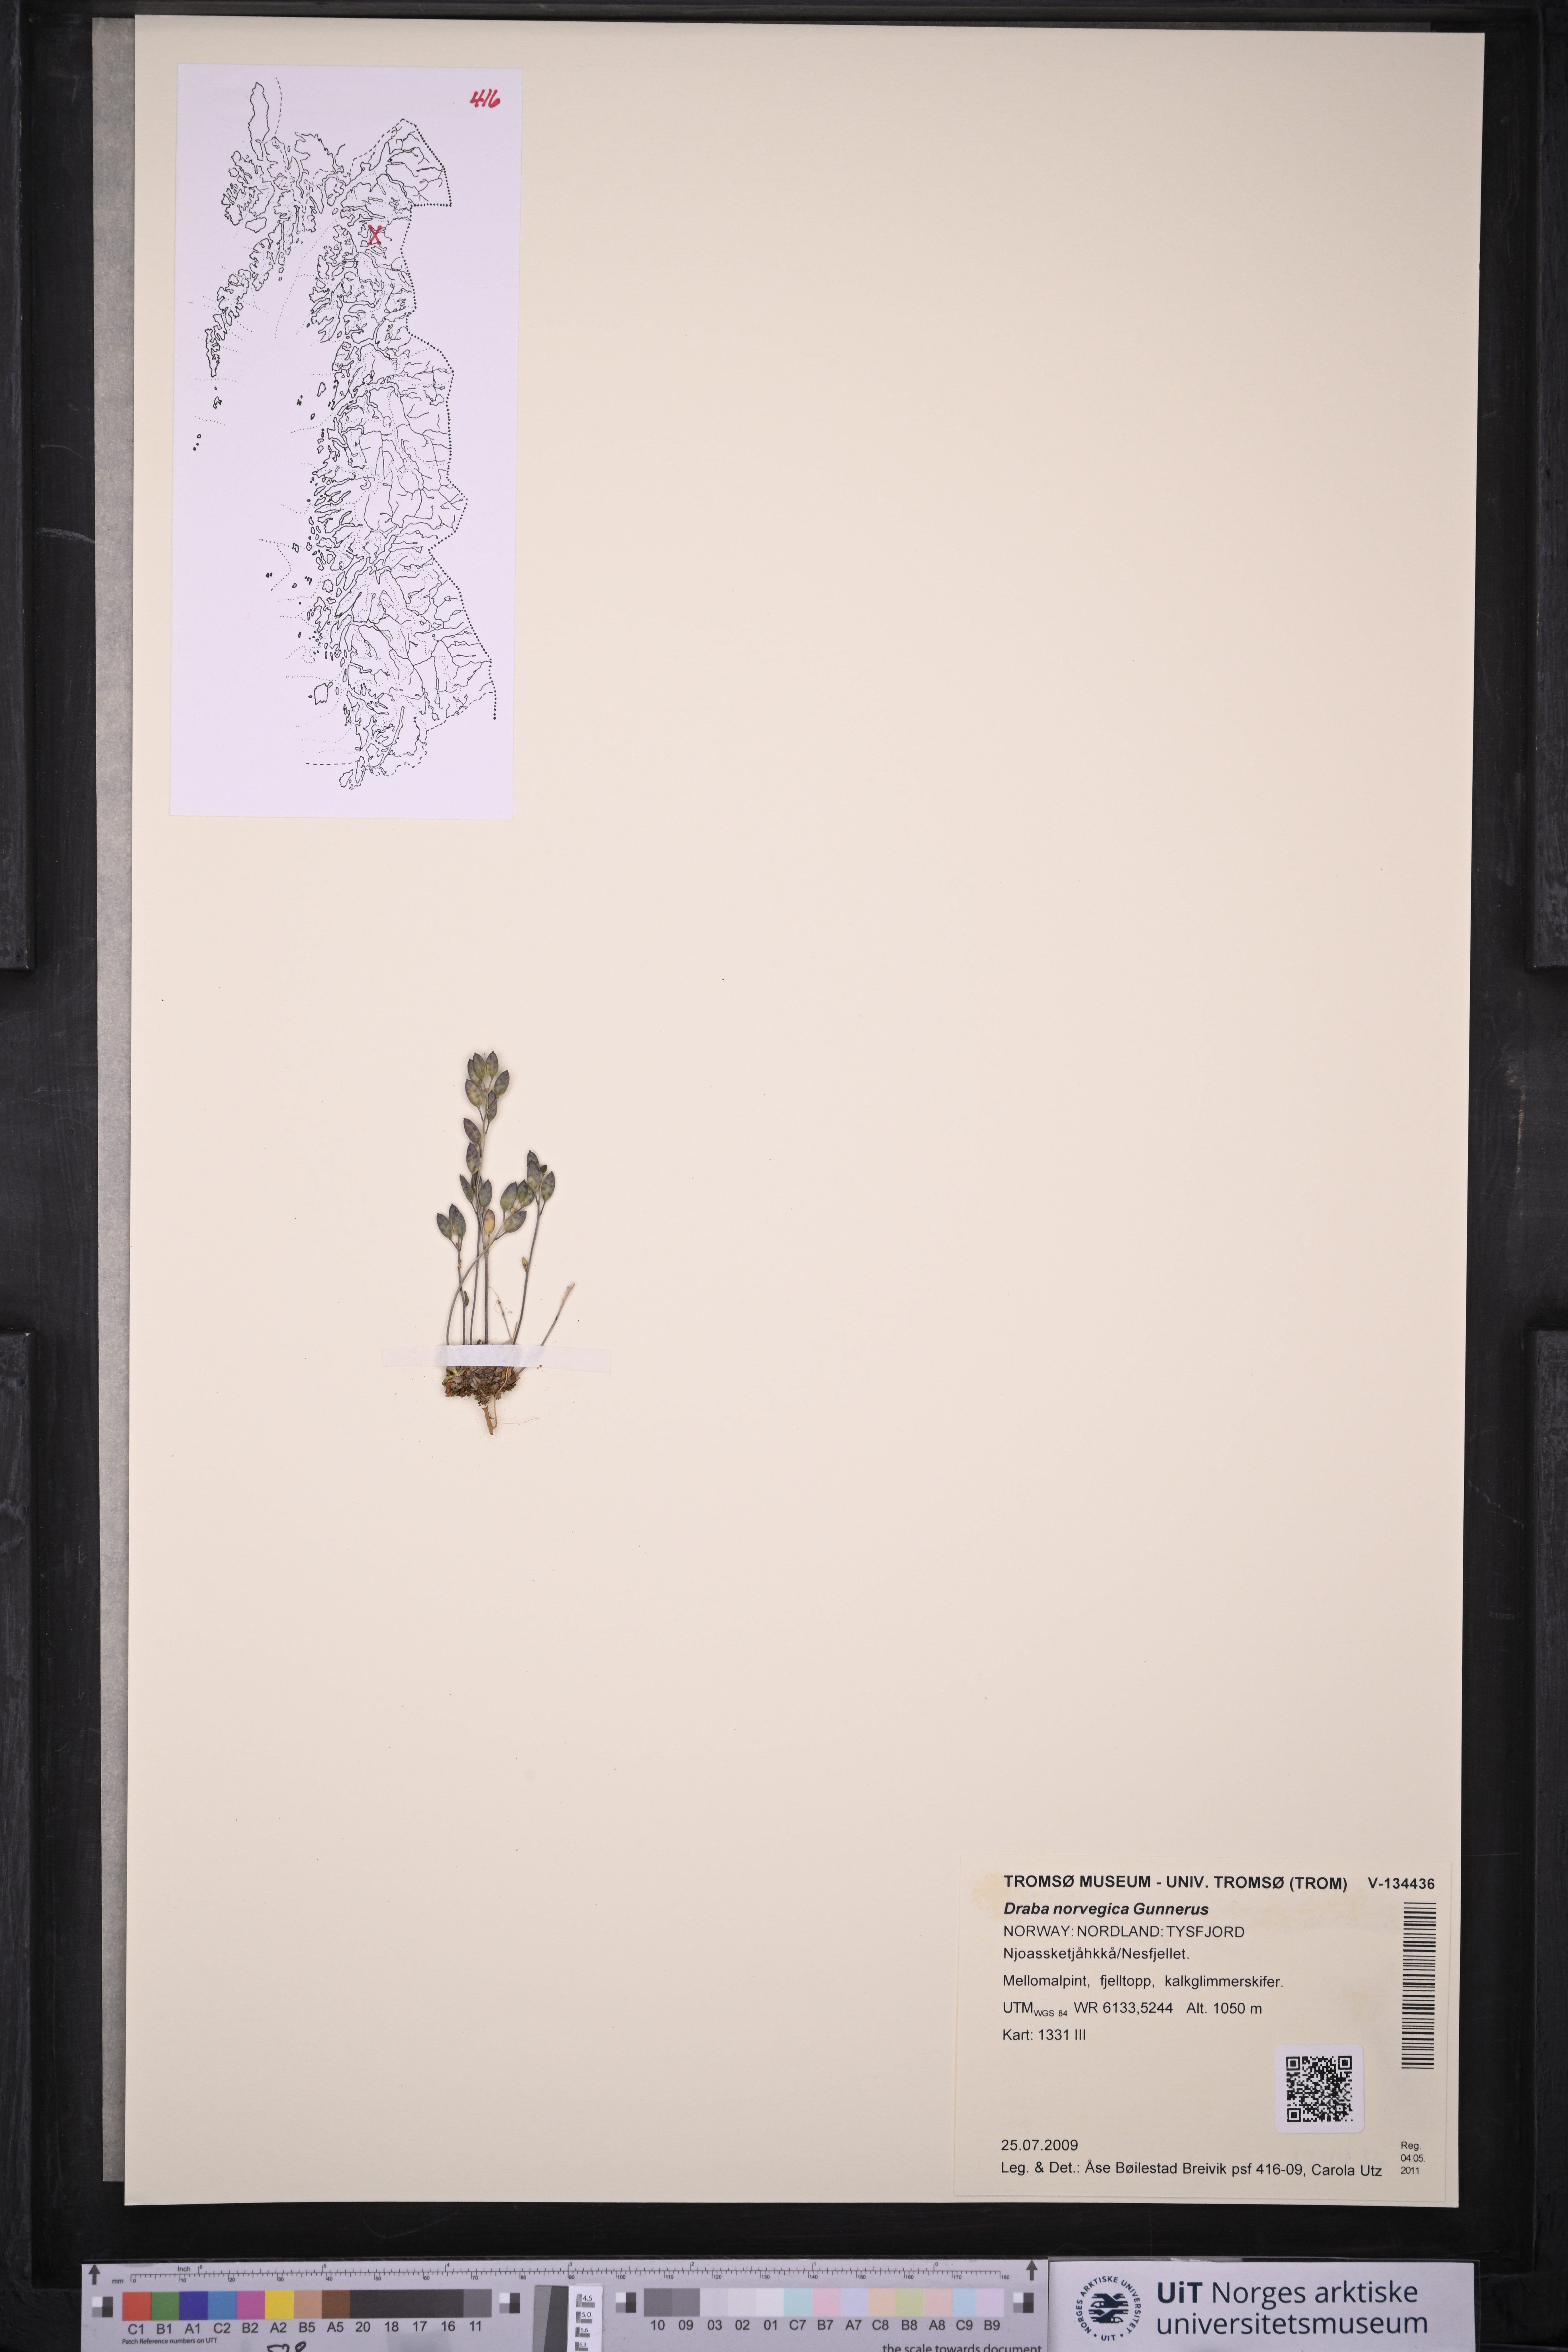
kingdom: Plantae
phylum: Tracheophyta
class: Magnoliopsida
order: Brassicales
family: Brassicaceae
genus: Draba
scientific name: Draba norvegica
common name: Rock whitlowgrass
